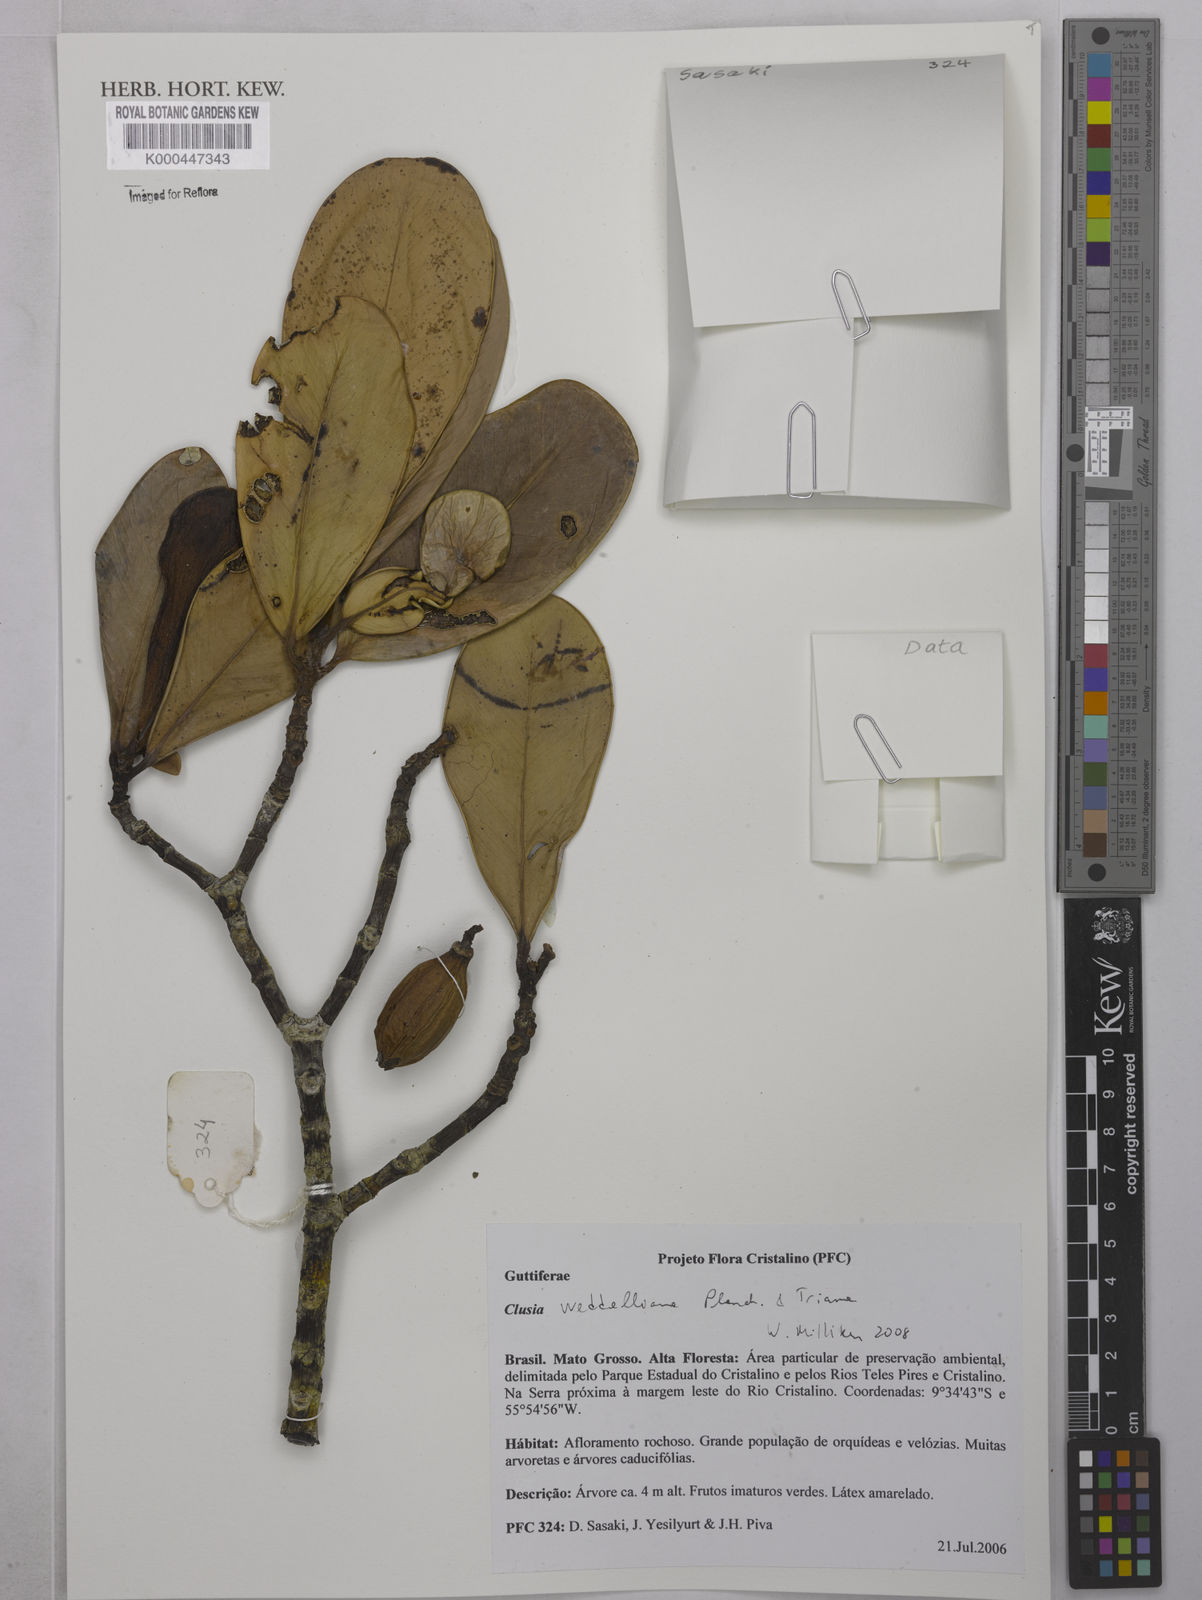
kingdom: Plantae
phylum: Tracheophyta
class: Magnoliopsida
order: Malpighiales
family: Clusiaceae
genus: Clusia
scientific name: Clusia weddelliana
